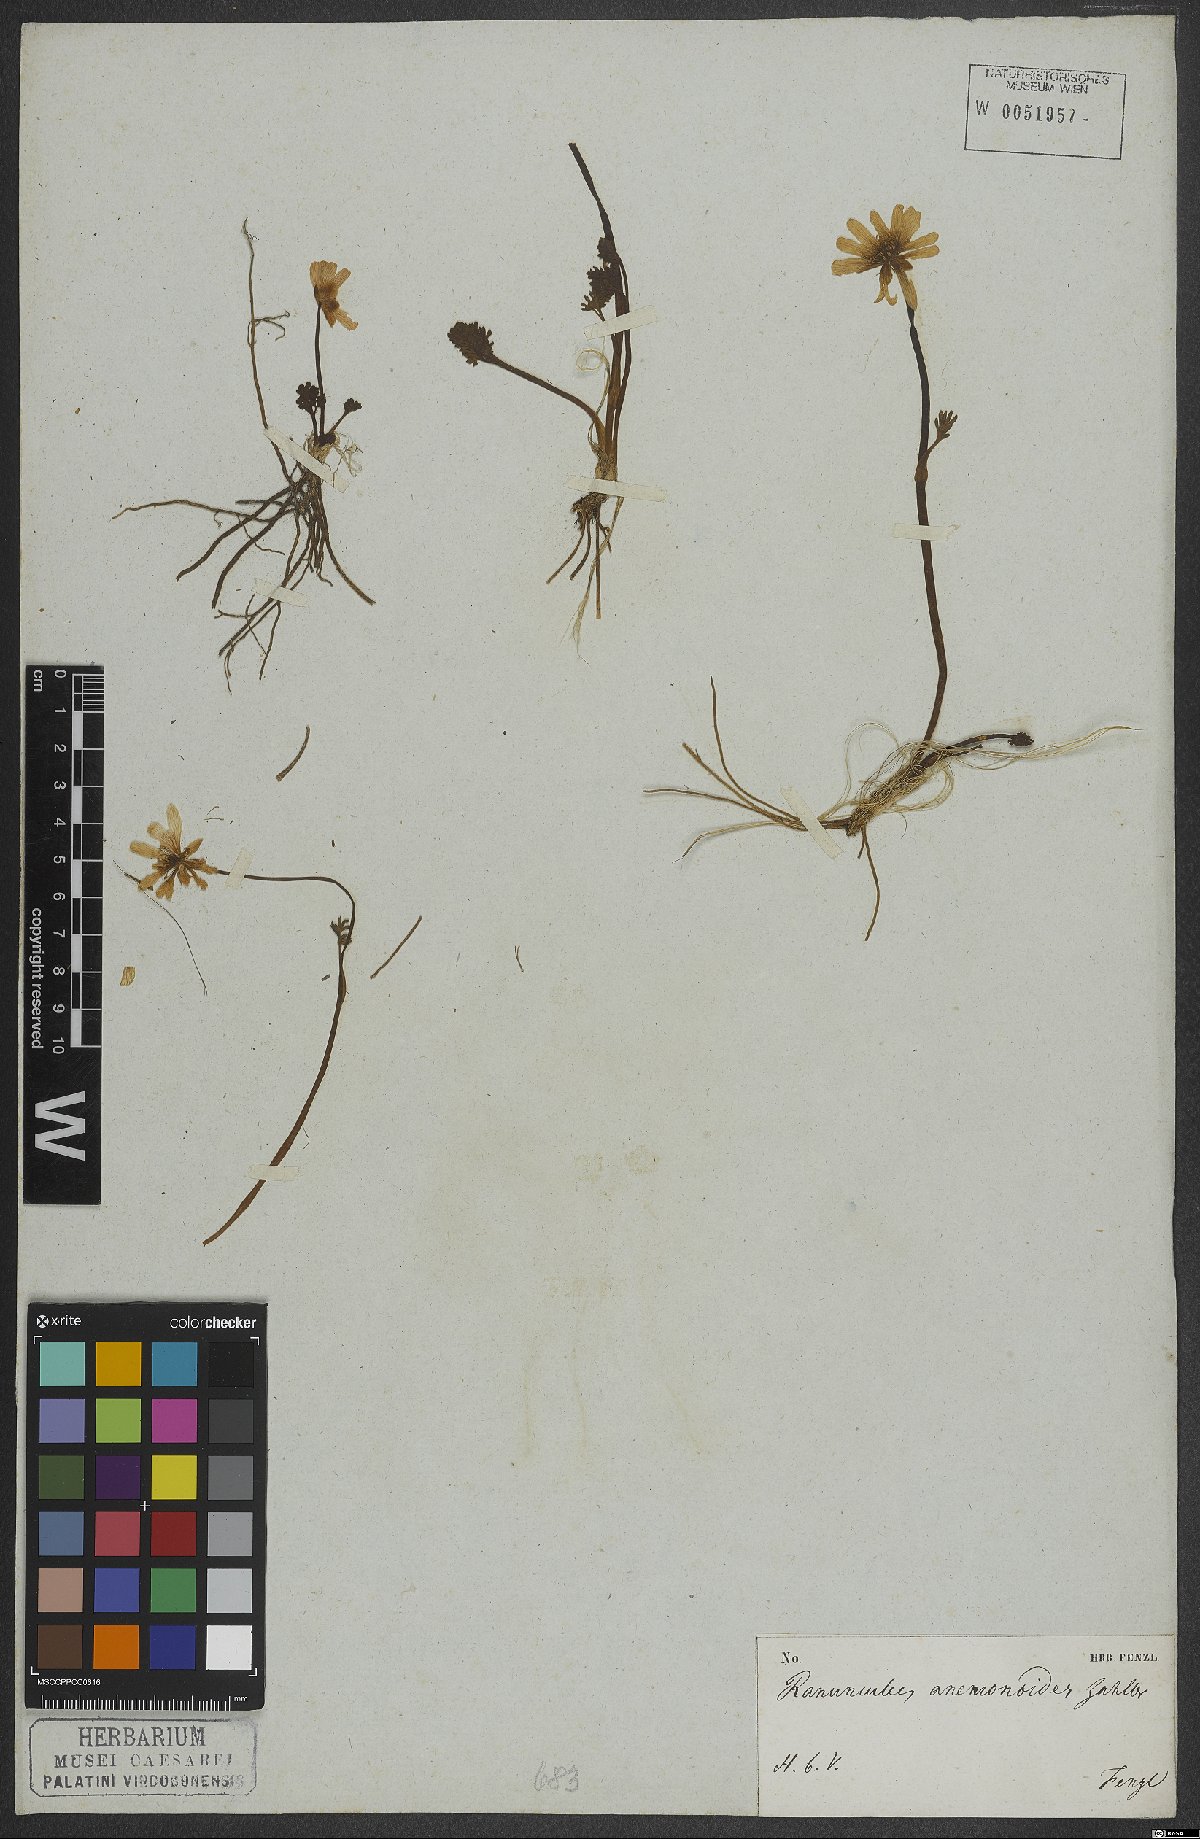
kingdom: Plantae
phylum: Tracheophyta
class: Magnoliopsida
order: Ranunculales
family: Ranunculaceae
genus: Callianthemum
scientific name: Callianthemum anemonoides
